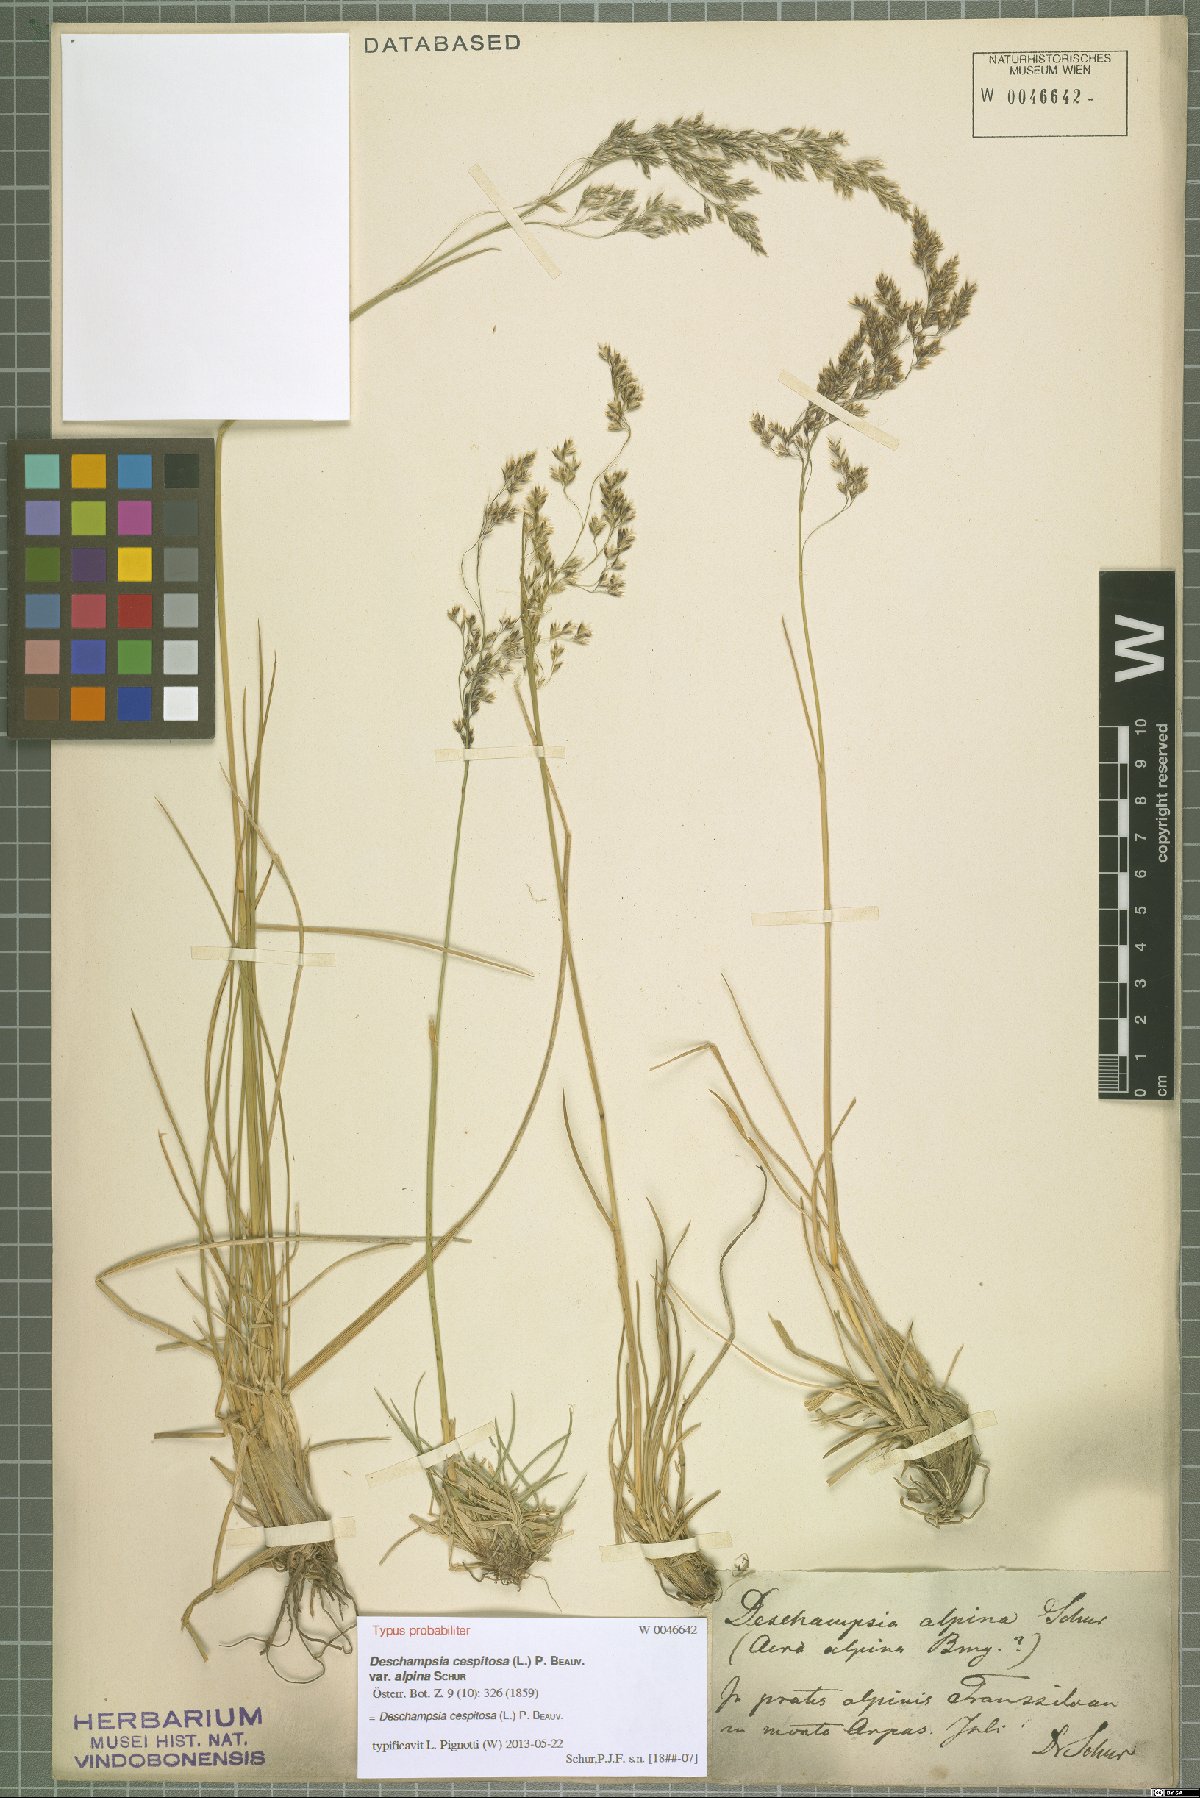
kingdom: Plantae
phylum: Tracheophyta
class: Liliopsida
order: Poales
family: Poaceae
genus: Deschampsia
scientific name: Deschampsia cespitosa
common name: Tufted hair-grass
